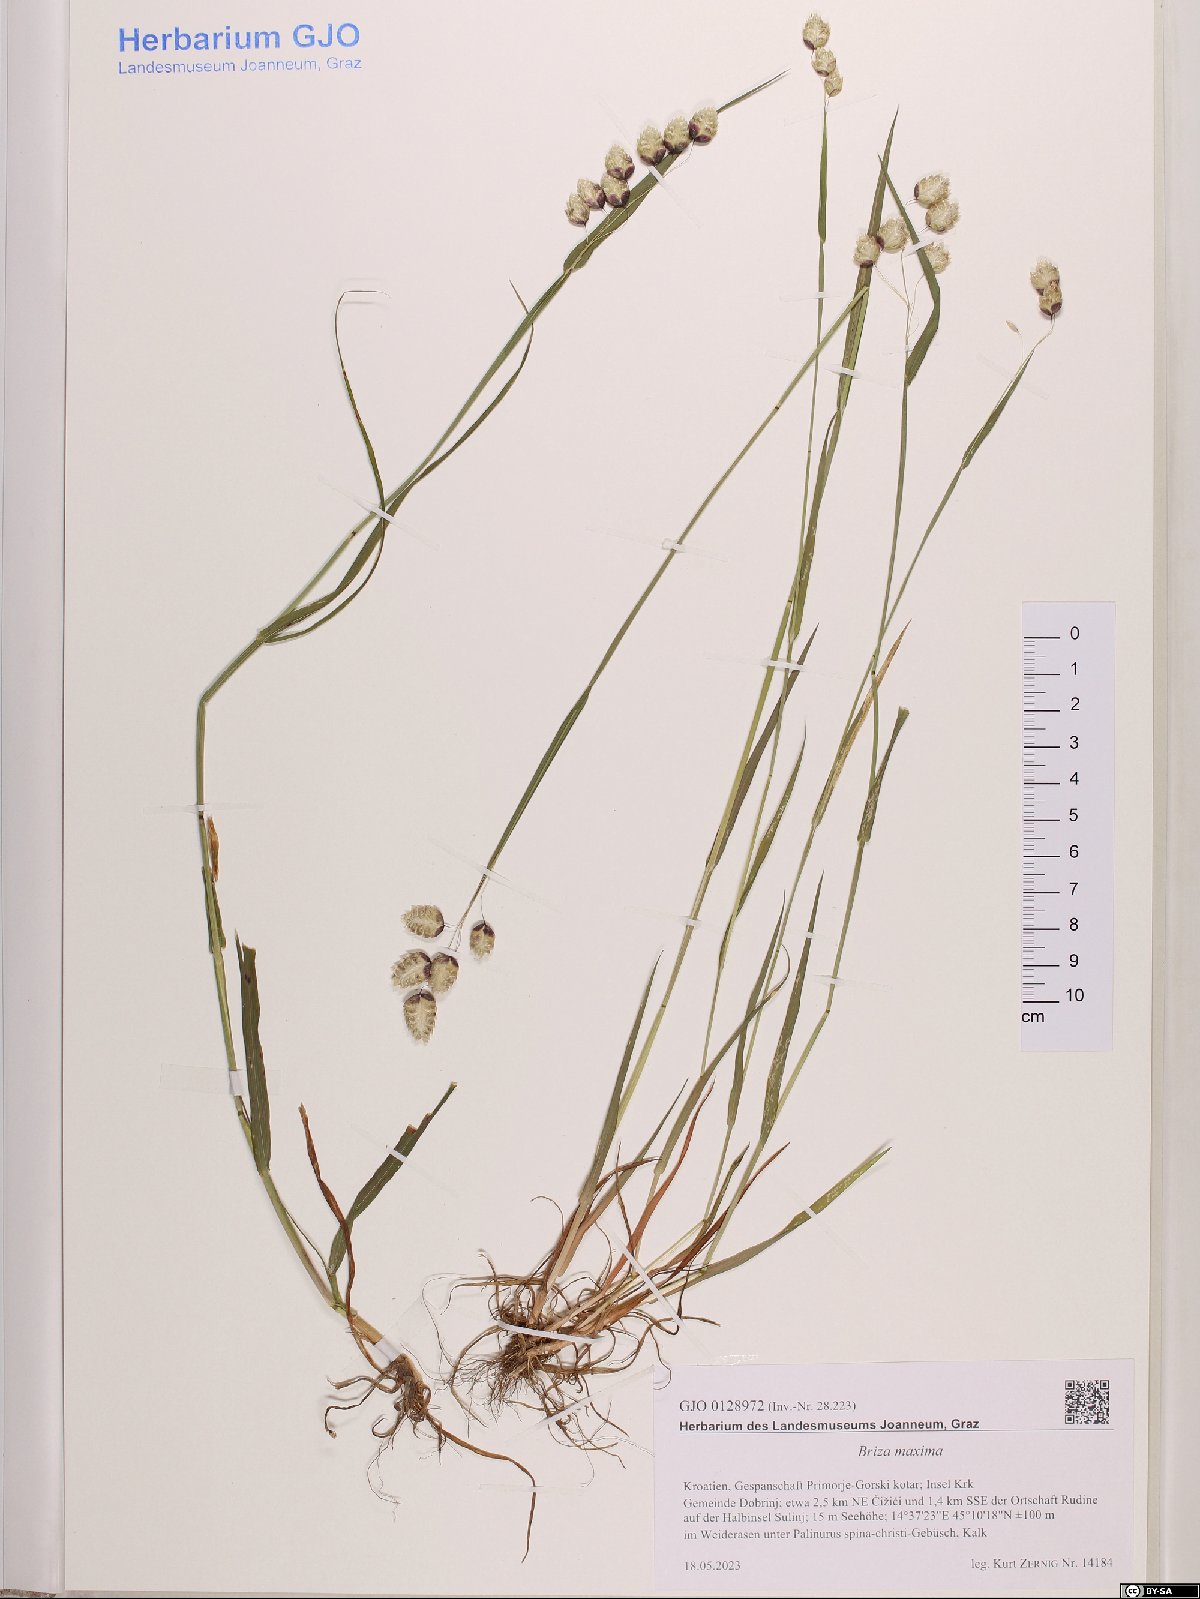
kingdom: Plantae
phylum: Tracheophyta
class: Liliopsida
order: Poales
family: Poaceae
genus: Briza
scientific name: Briza maxima
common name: Big quakinggrass
